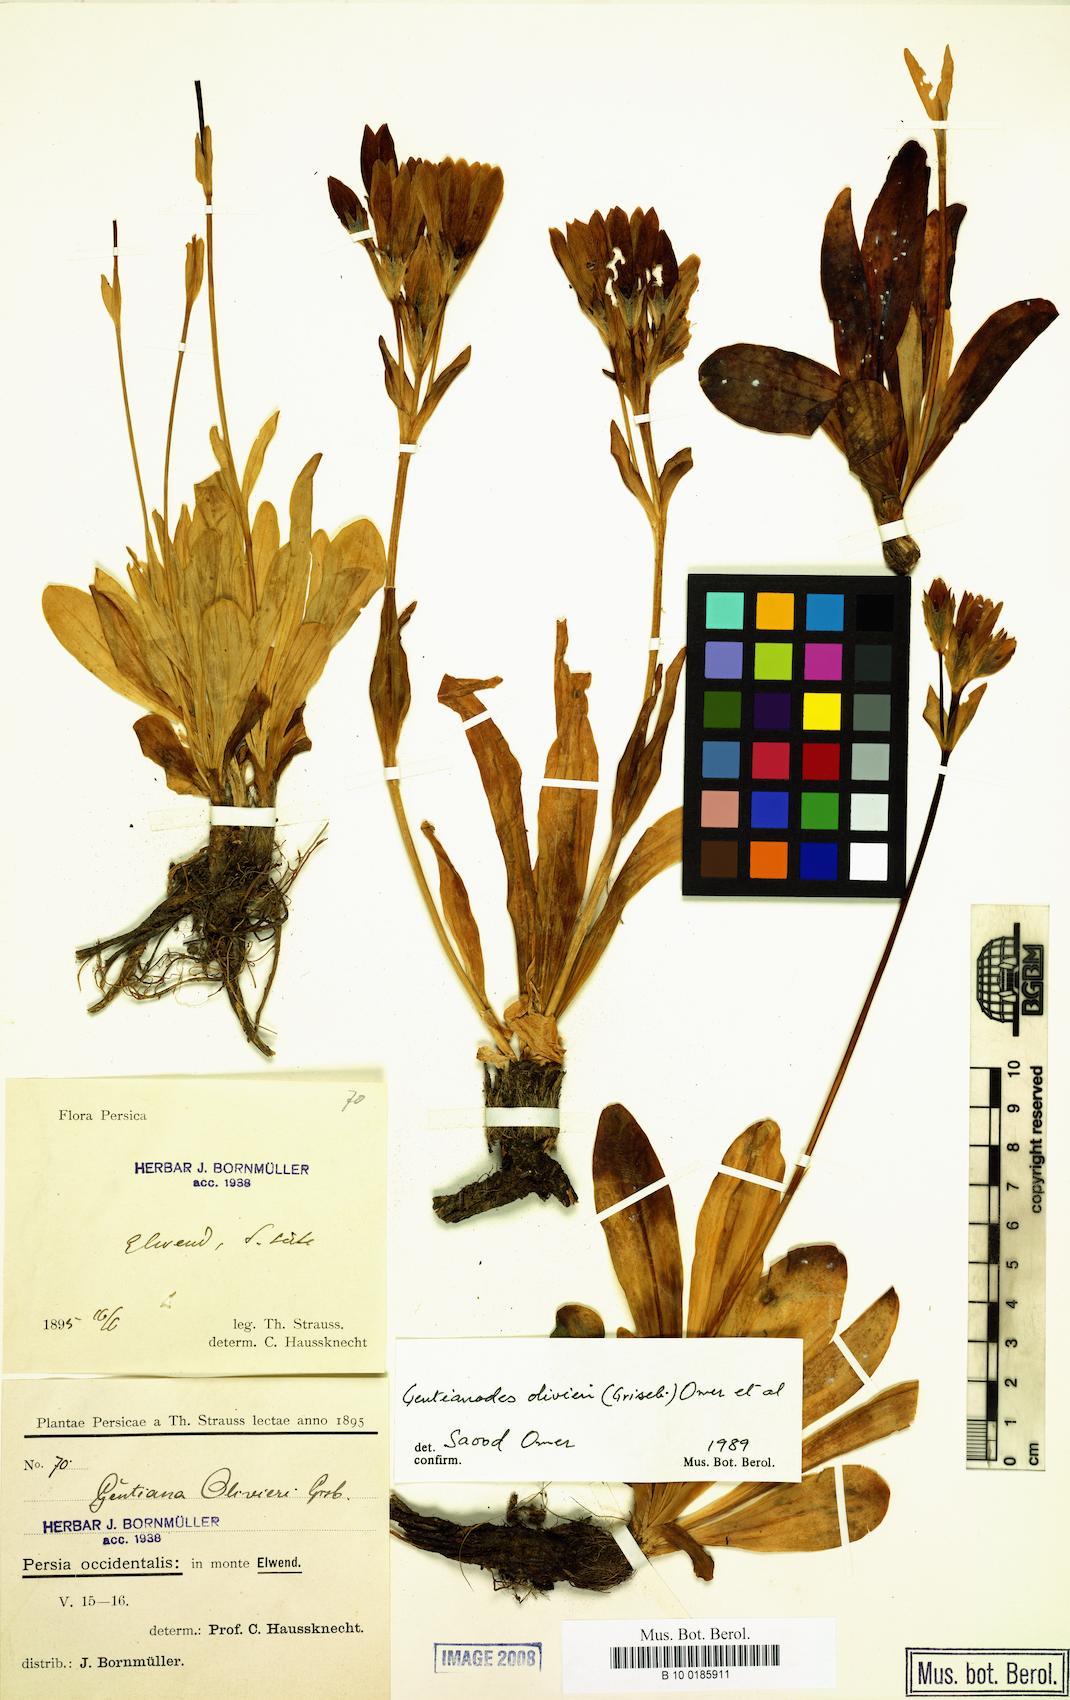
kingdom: Plantae
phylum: Tracheophyta
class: Magnoliopsida
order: Gentianales
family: Gentianaceae
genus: Gentiana
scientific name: Gentiana olivieri
